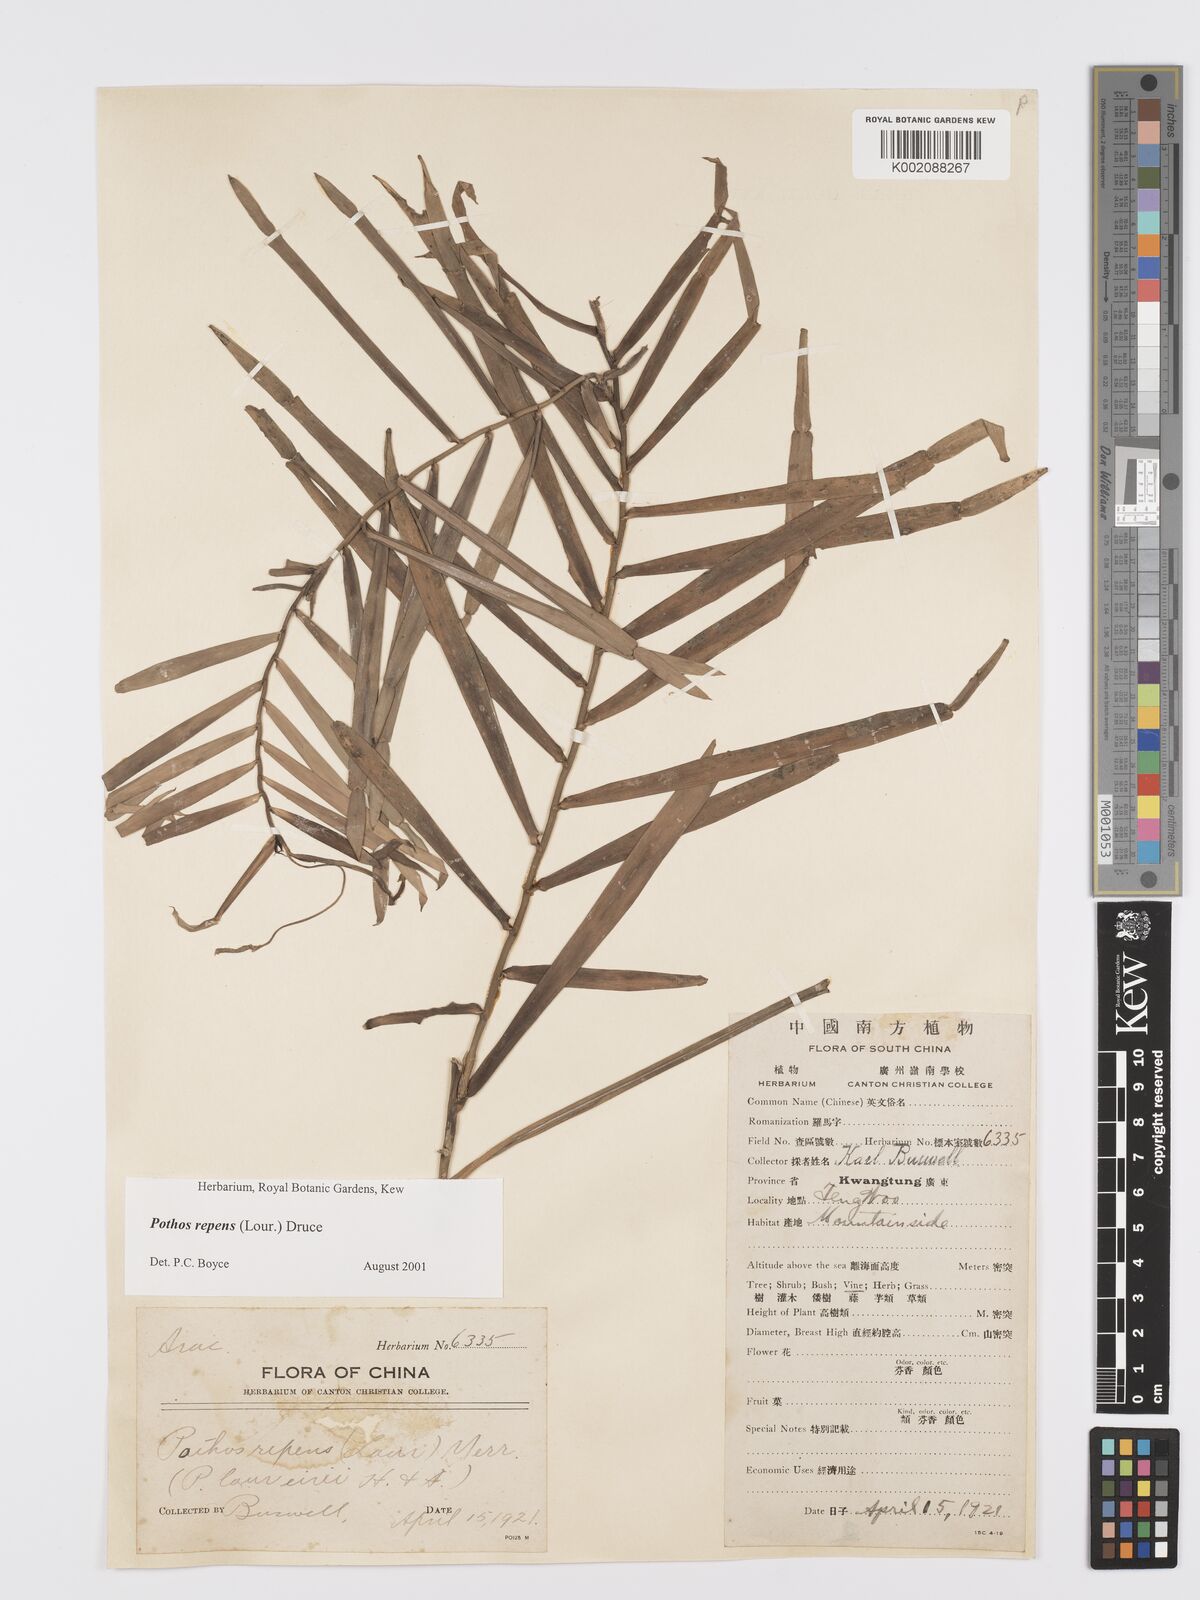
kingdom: Plantae
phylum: Tracheophyta
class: Liliopsida
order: Alismatales
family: Araceae
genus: Pothos
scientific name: Pothos repens
